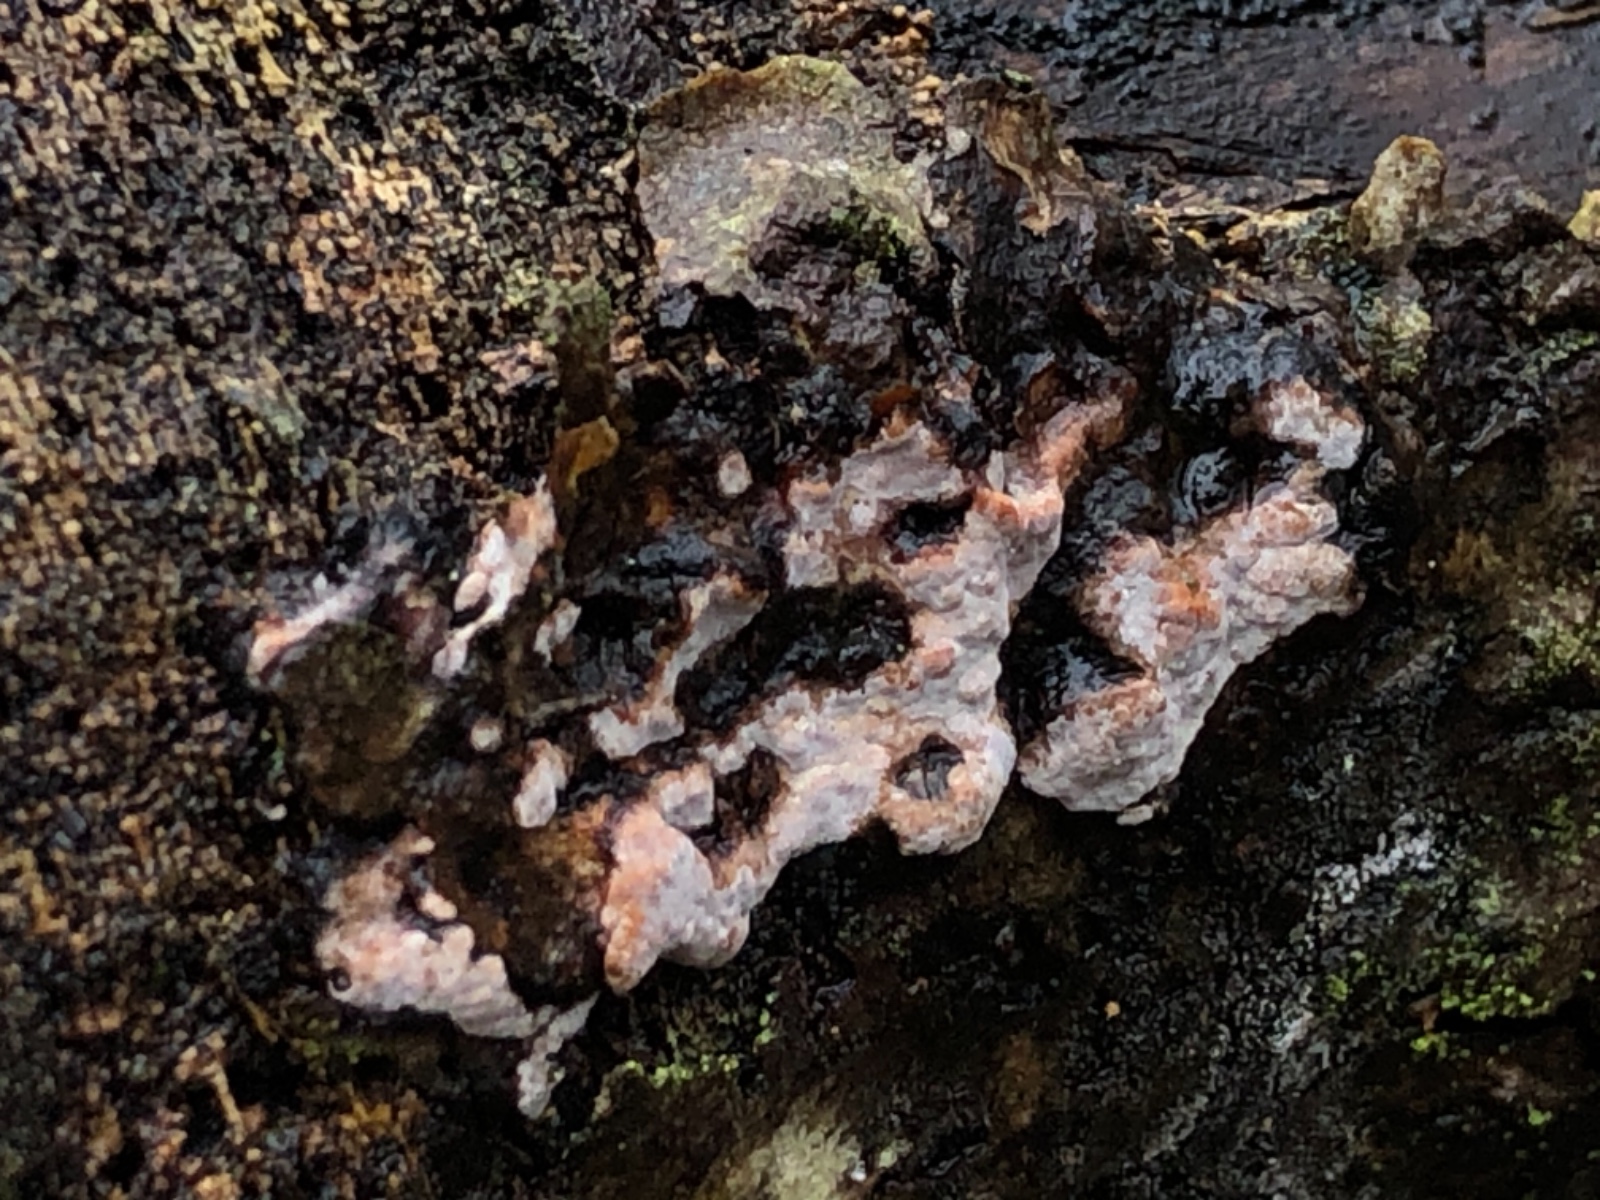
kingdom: Fungi
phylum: Basidiomycota
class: Agaricomycetes
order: Russulales
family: Peniophoraceae
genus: Peniophora
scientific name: Peniophora polygonia
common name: polygon-voksskind
